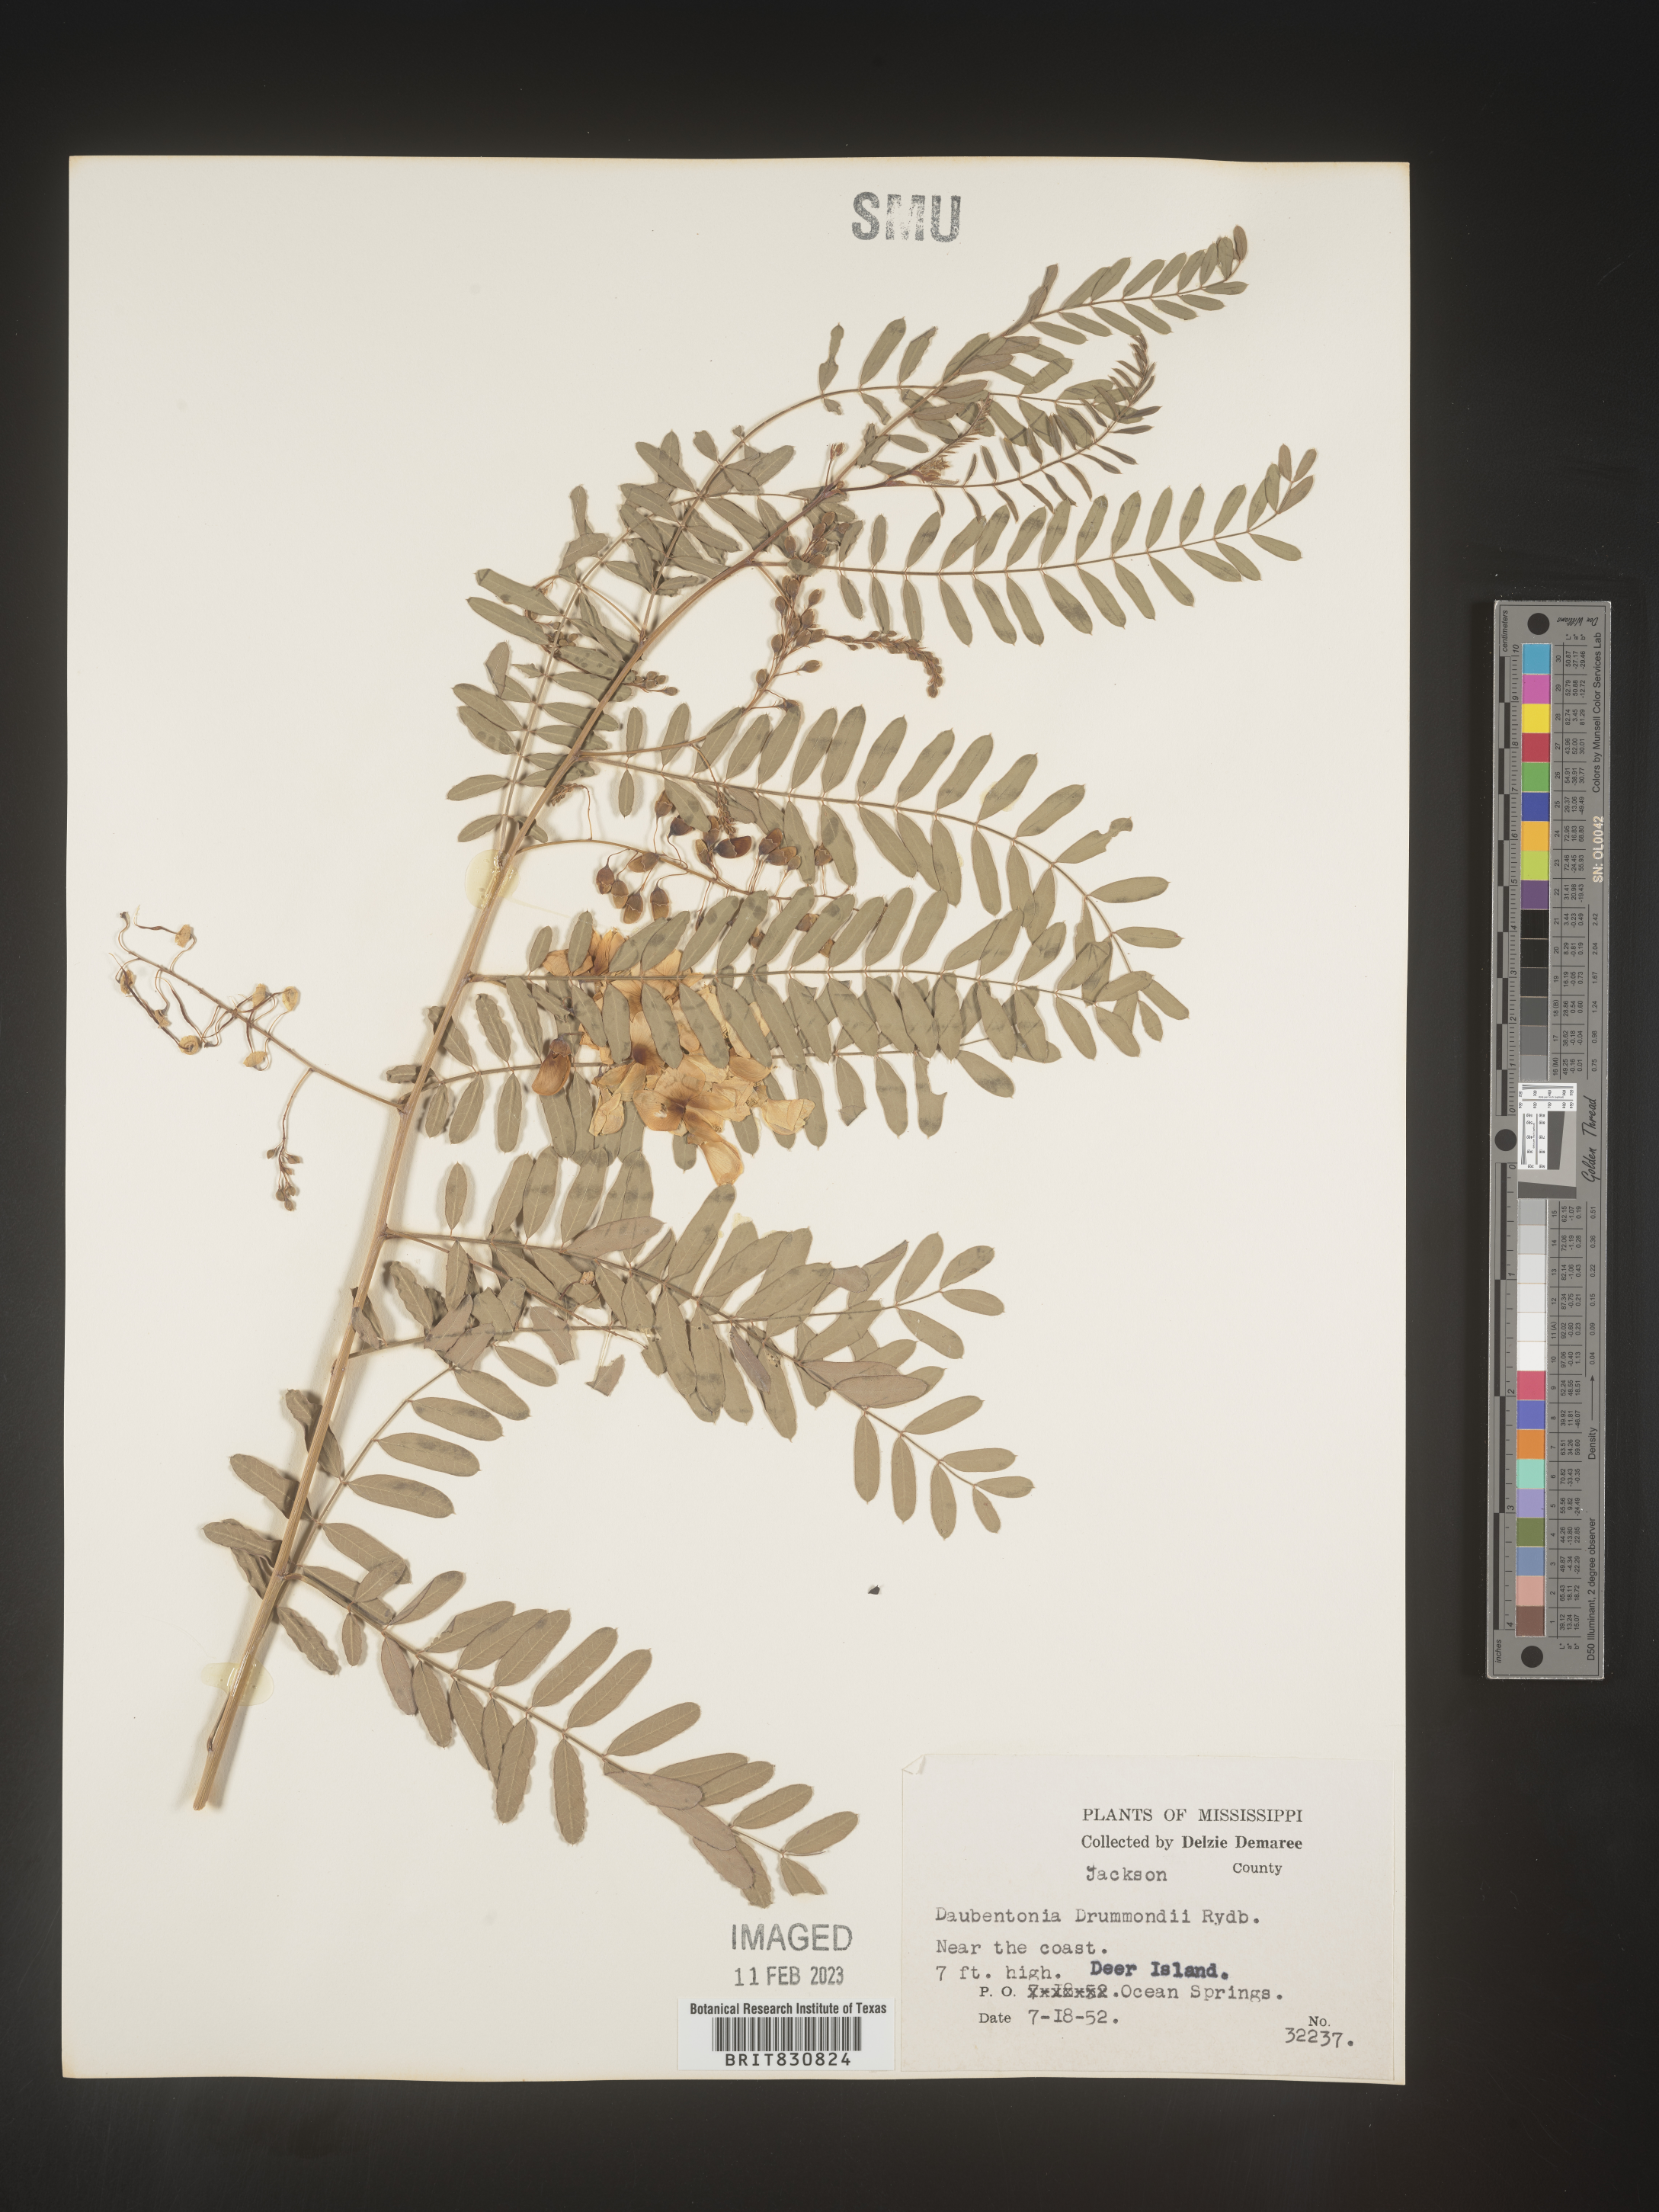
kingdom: Plantae
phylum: Tracheophyta
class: Magnoliopsida
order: Fabales
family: Fabaceae
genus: Sesbania
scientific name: Sesbania drummondii
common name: Poison-bean
